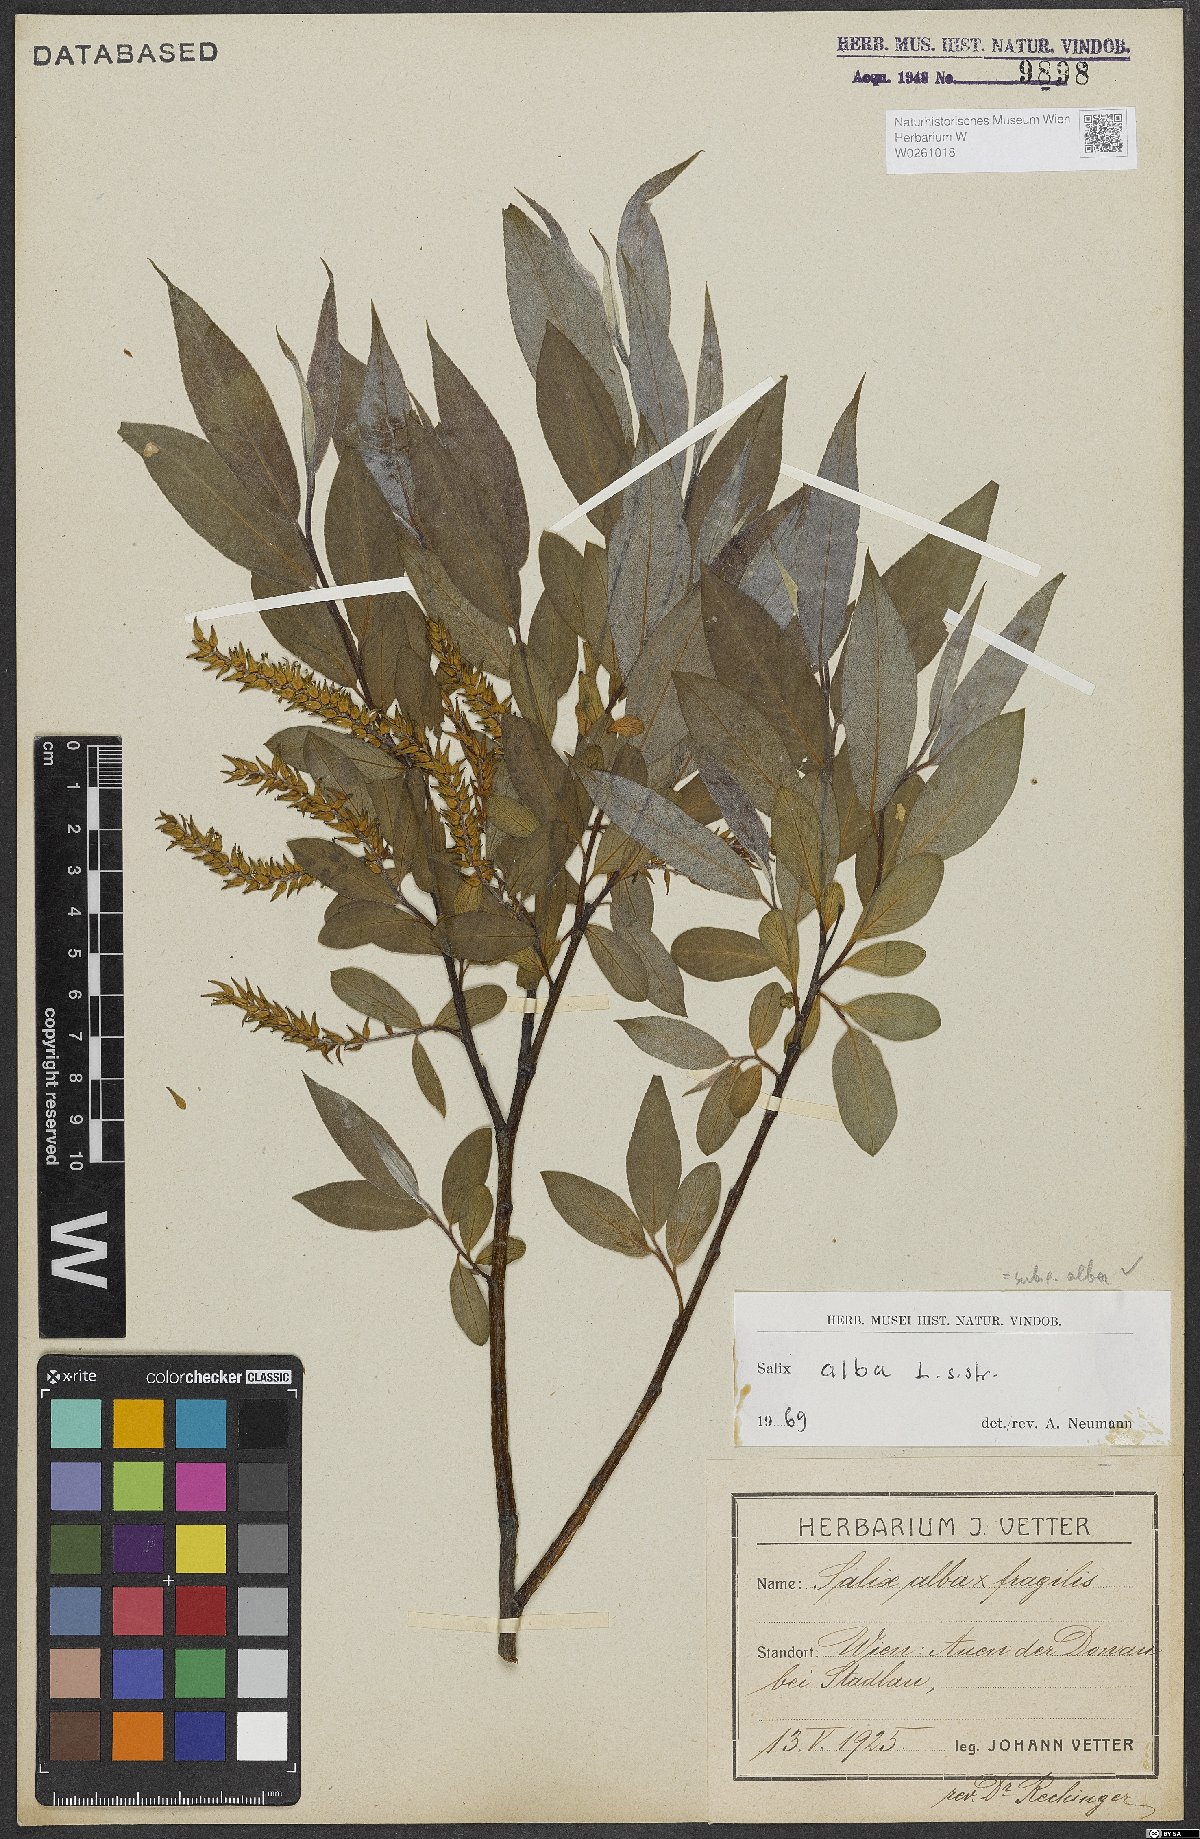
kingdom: Plantae
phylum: Tracheophyta
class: Magnoliopsida
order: Malpighiales
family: Salicaceae
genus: Salix
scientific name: Salix alba
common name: White willow
